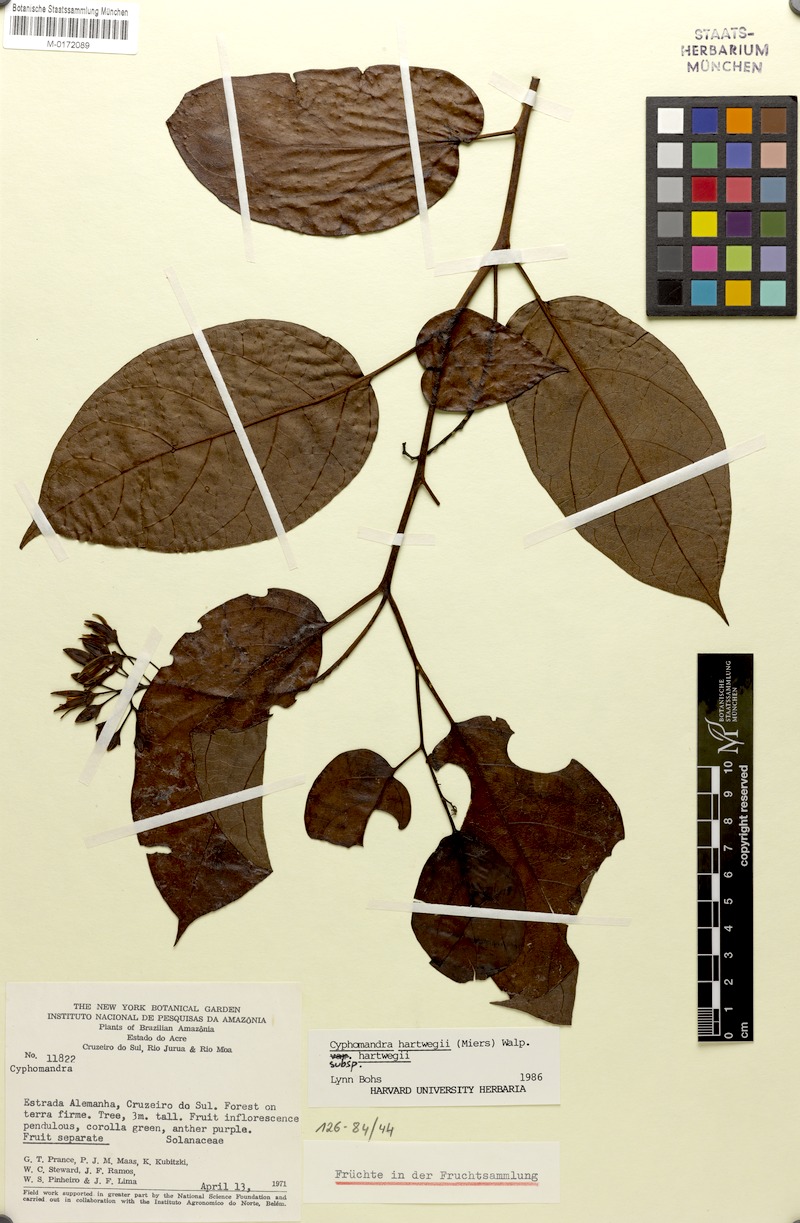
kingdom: Plantae
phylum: Tracheophyta
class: Magnoliopsida
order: Solanales
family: Solanaceae
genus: Solanum
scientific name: Solanum splendens
